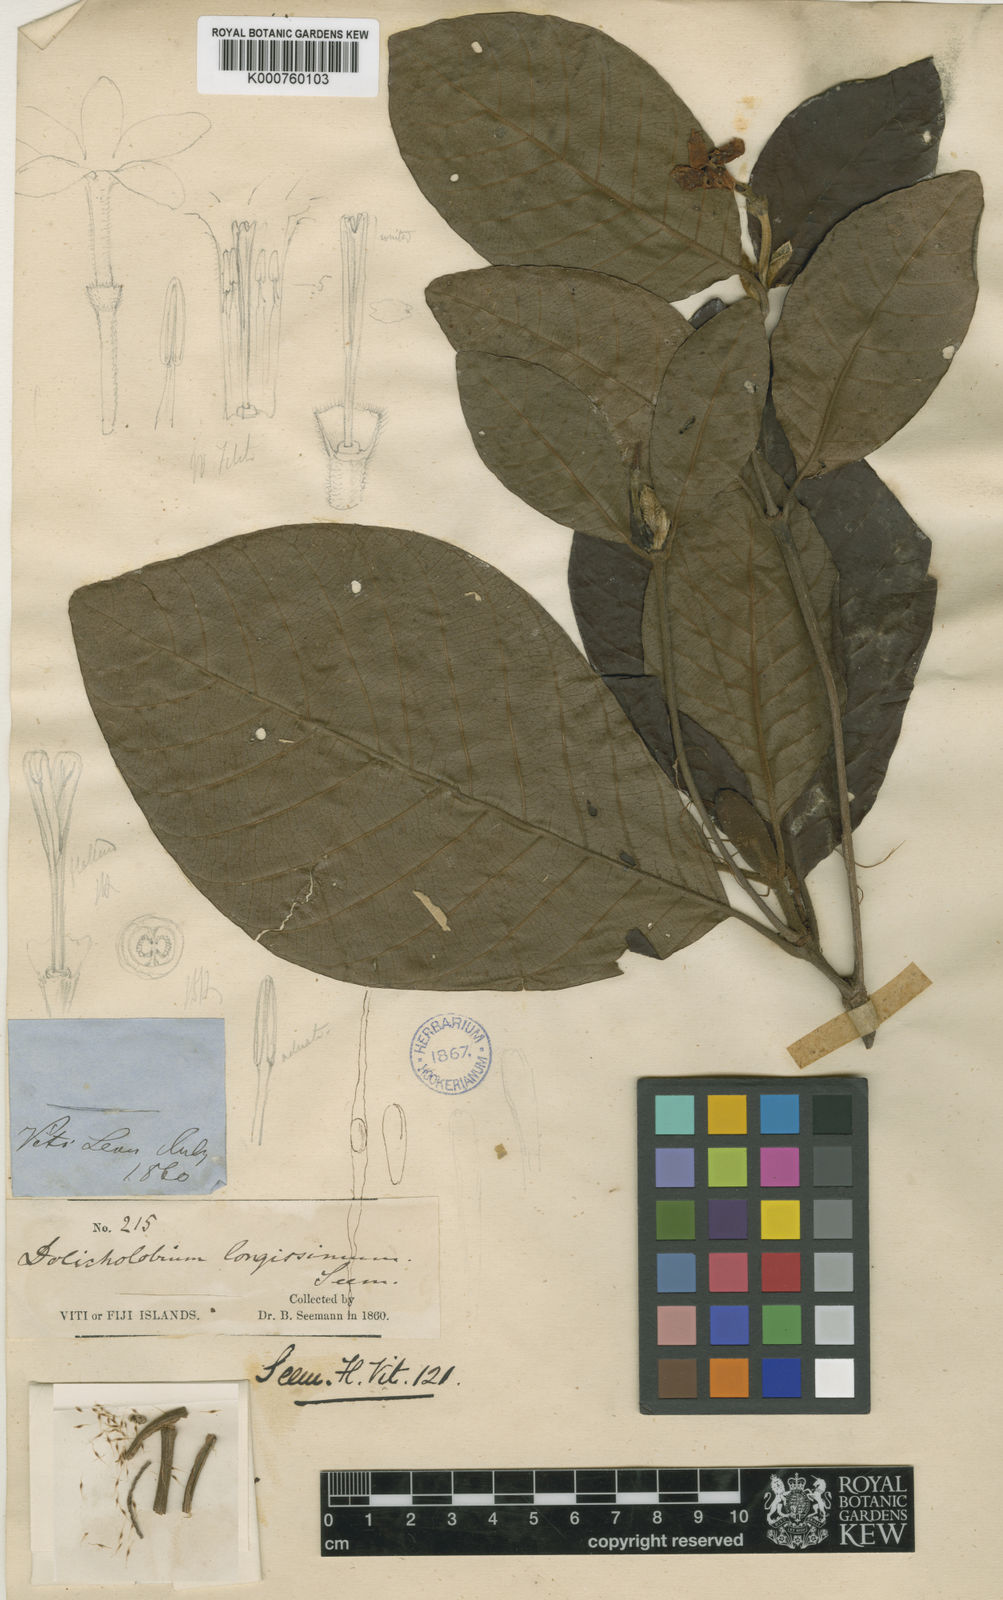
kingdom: Plantae
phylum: Tracheophyta
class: Magnoliopsida
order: Gentianales
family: Rubiaceae
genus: Dolicholobium
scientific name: Dolicholobium oblongifolium
